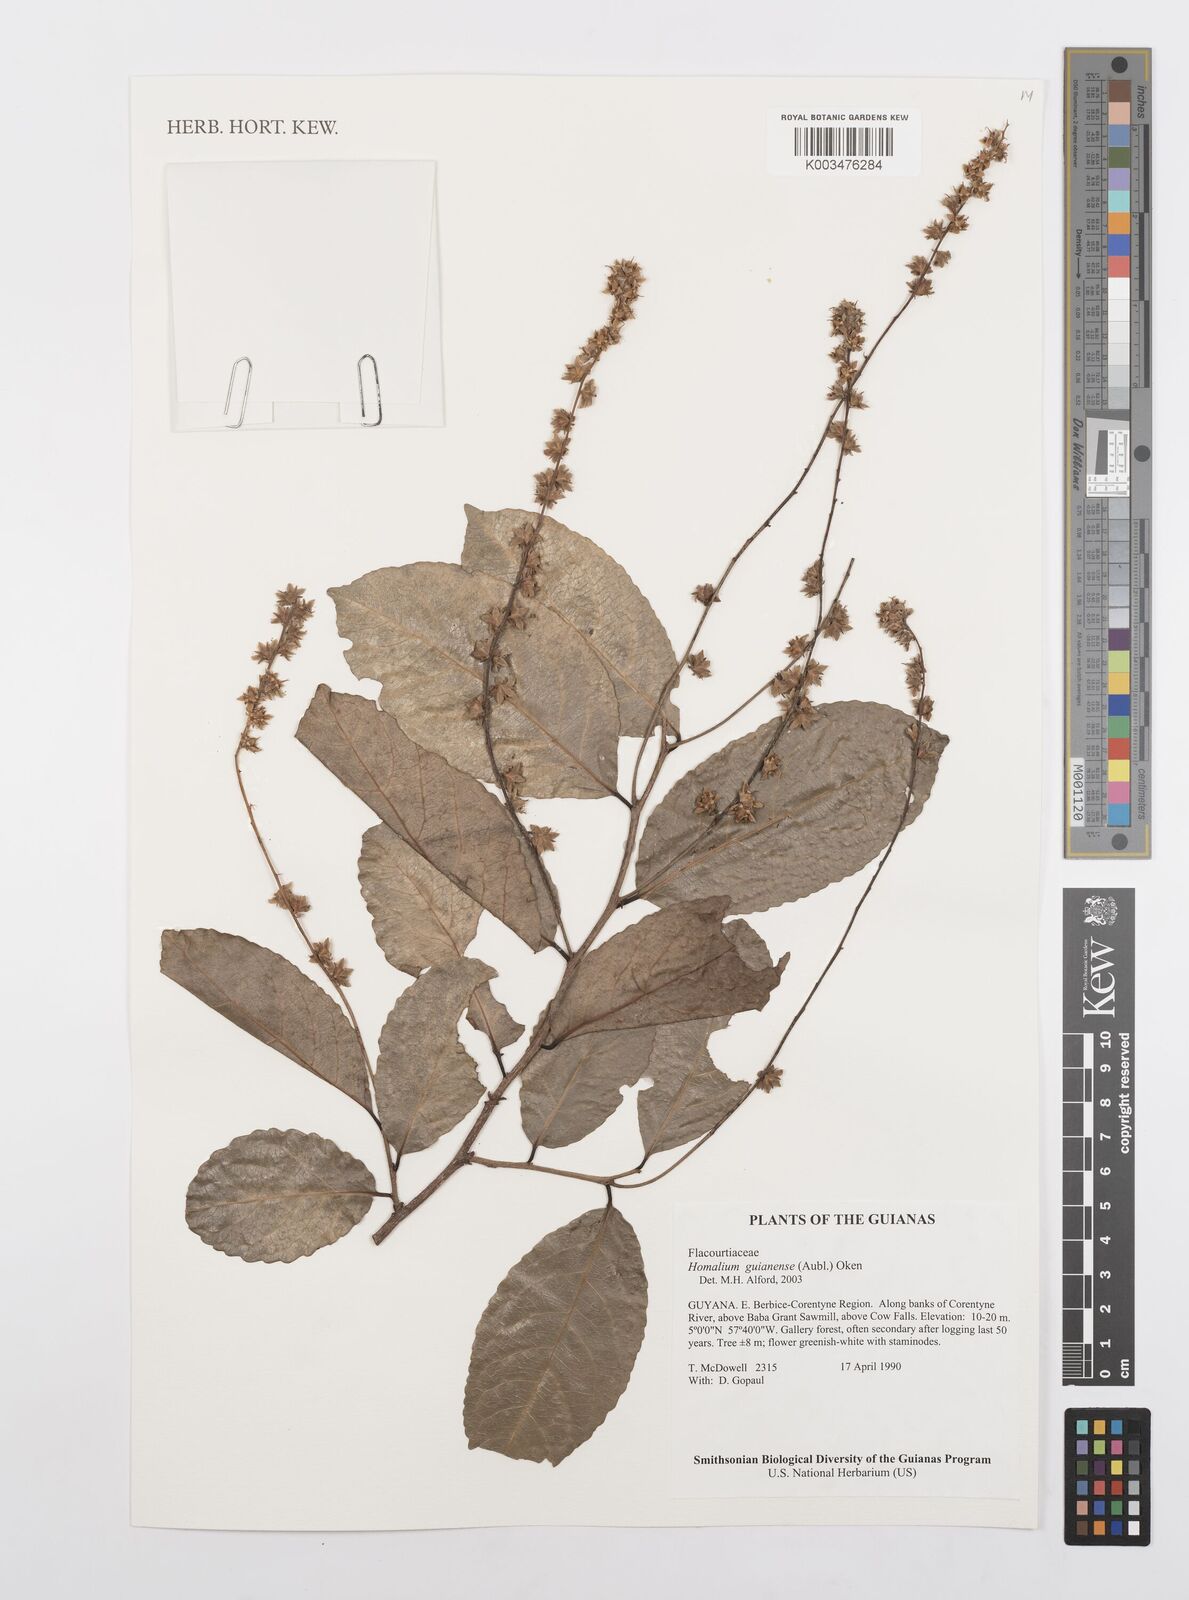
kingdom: Plantae
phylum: Tracheophyta
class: Magnoliopsida
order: Malpighiales
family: Salicaceae
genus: Homalium
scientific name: Homalium guianense
